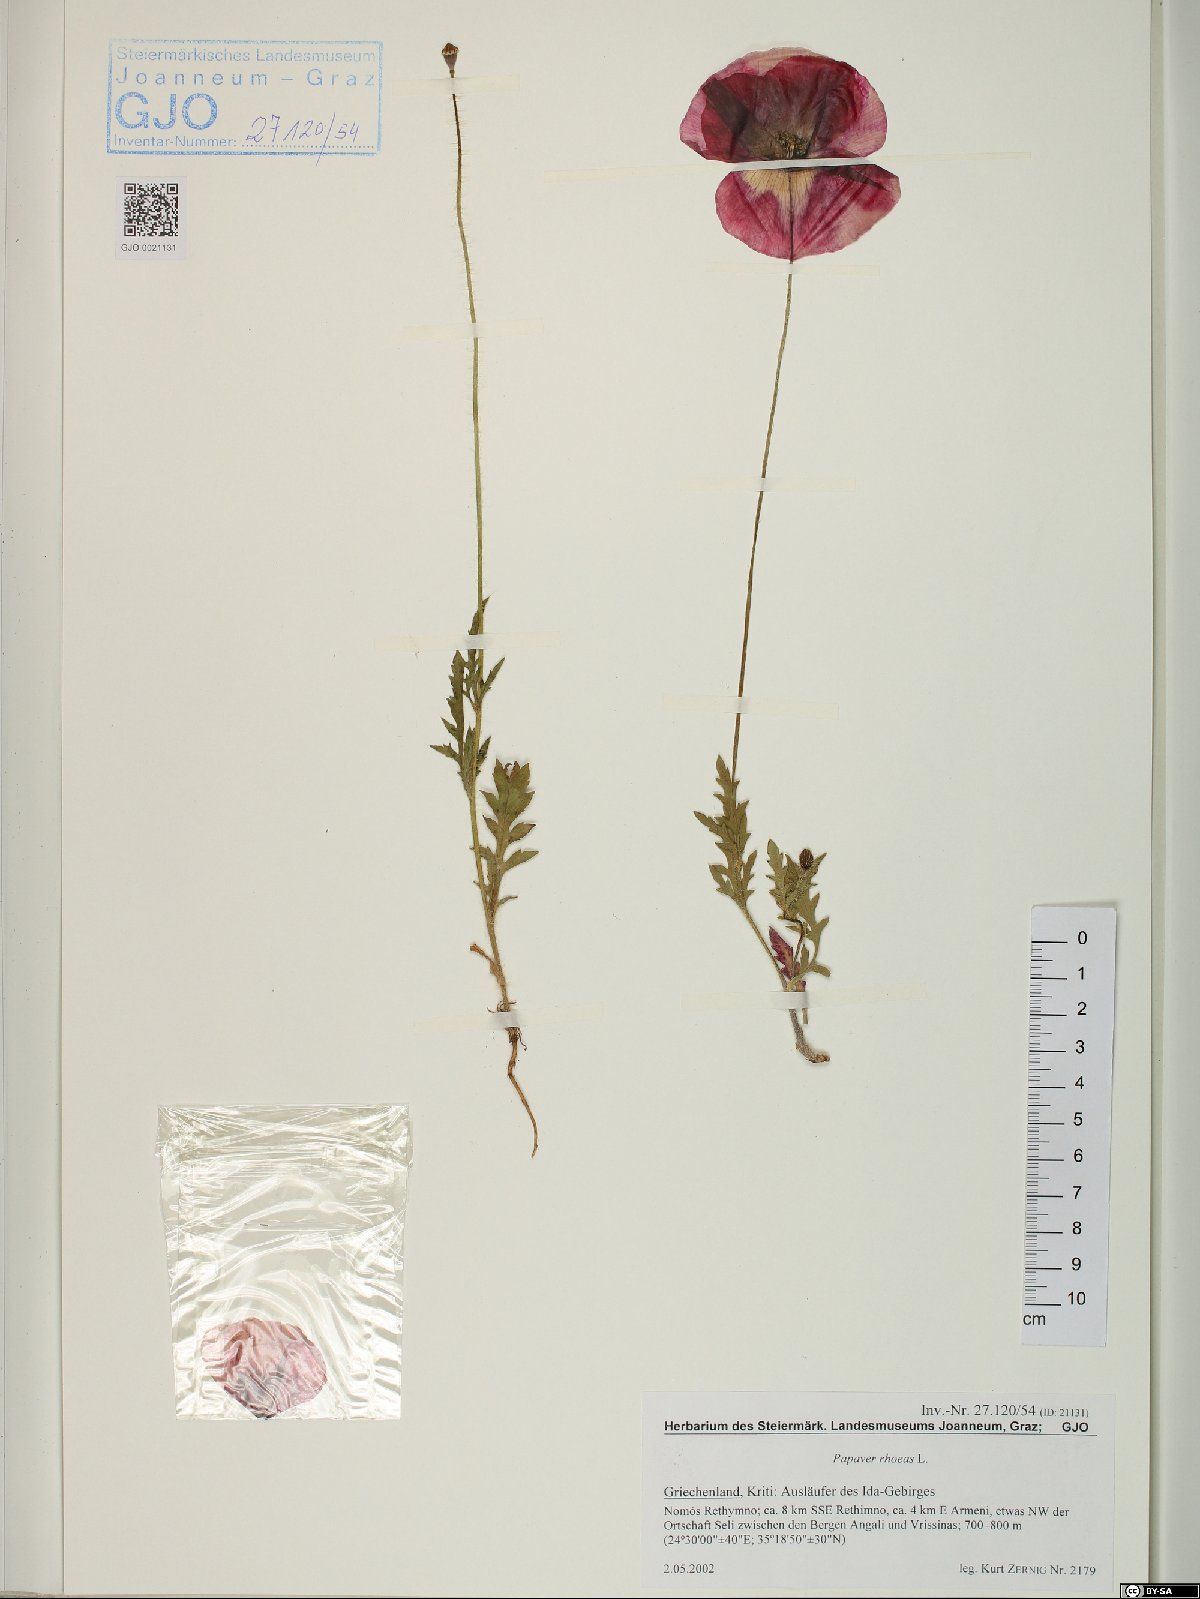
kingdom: Plantae
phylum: Tracheophyta
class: Magnoliopsida
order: Ranunculales
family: Papaveraceae
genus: Papaver
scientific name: Papaver rhoeas
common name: Corn poppy
